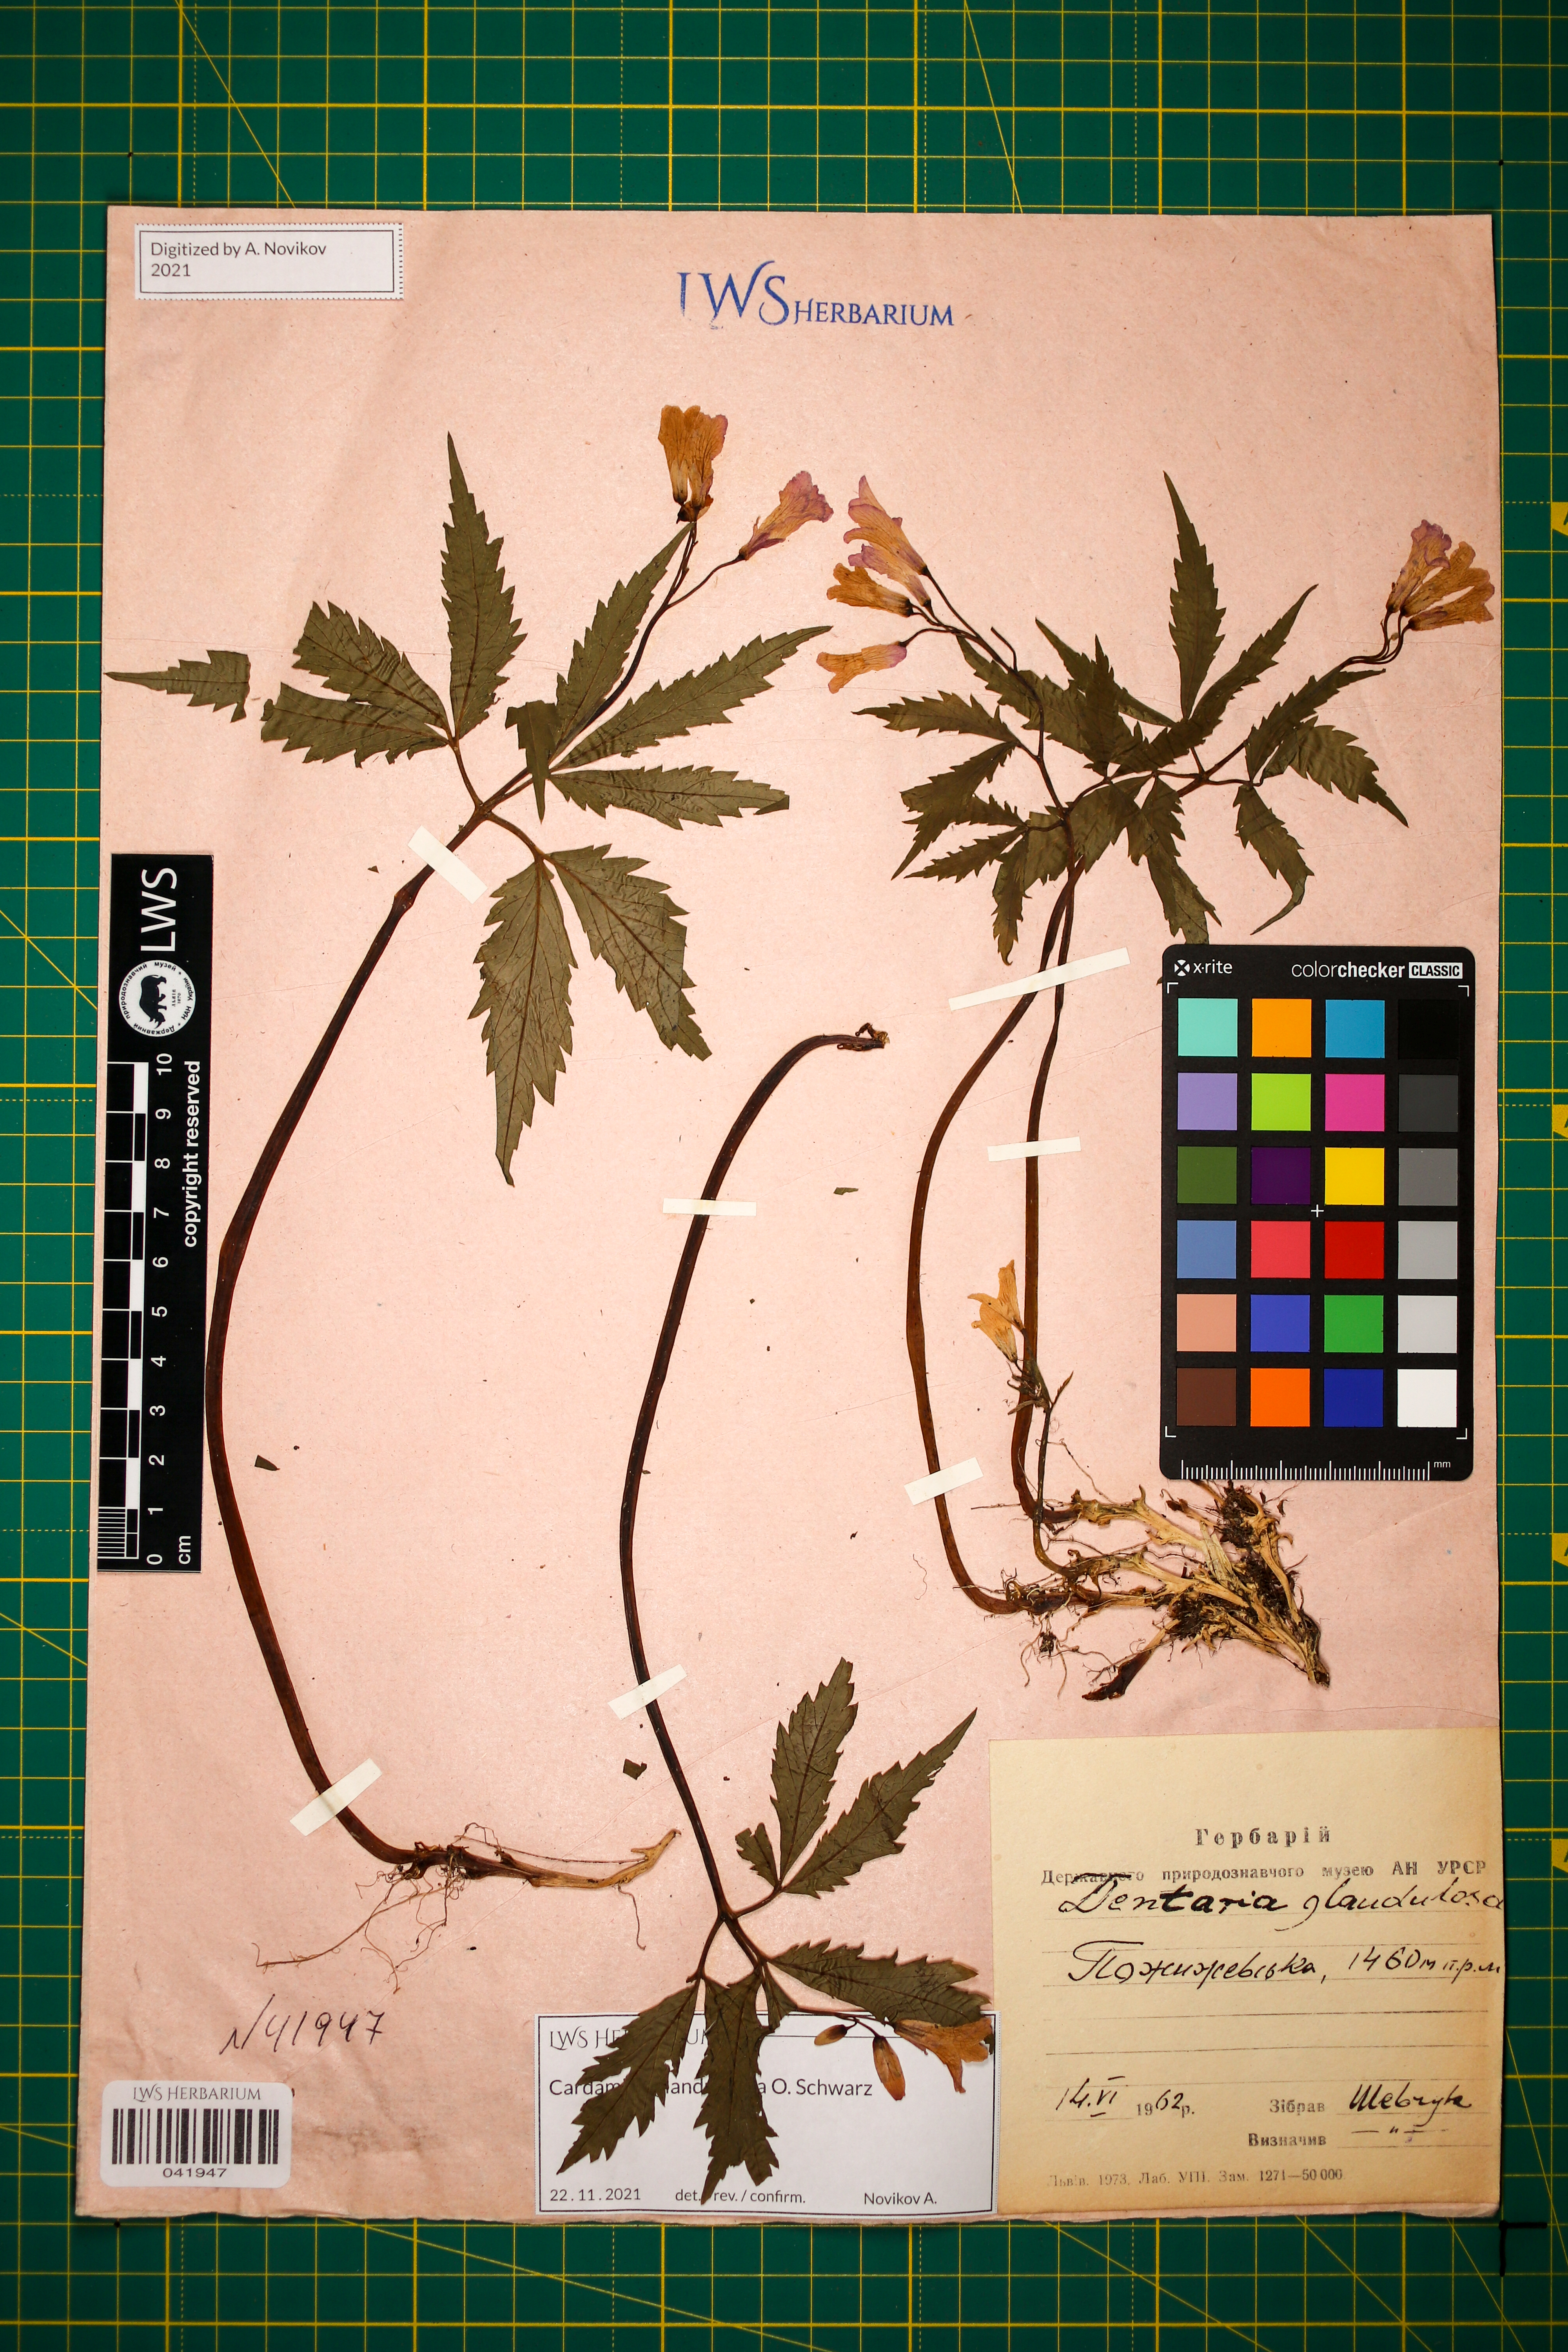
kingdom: Plantae
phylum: Tracheophyta
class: Magnoliopsida
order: Brassicales
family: Brassicaceae
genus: Cardamine
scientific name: Cardamine glanduligera
